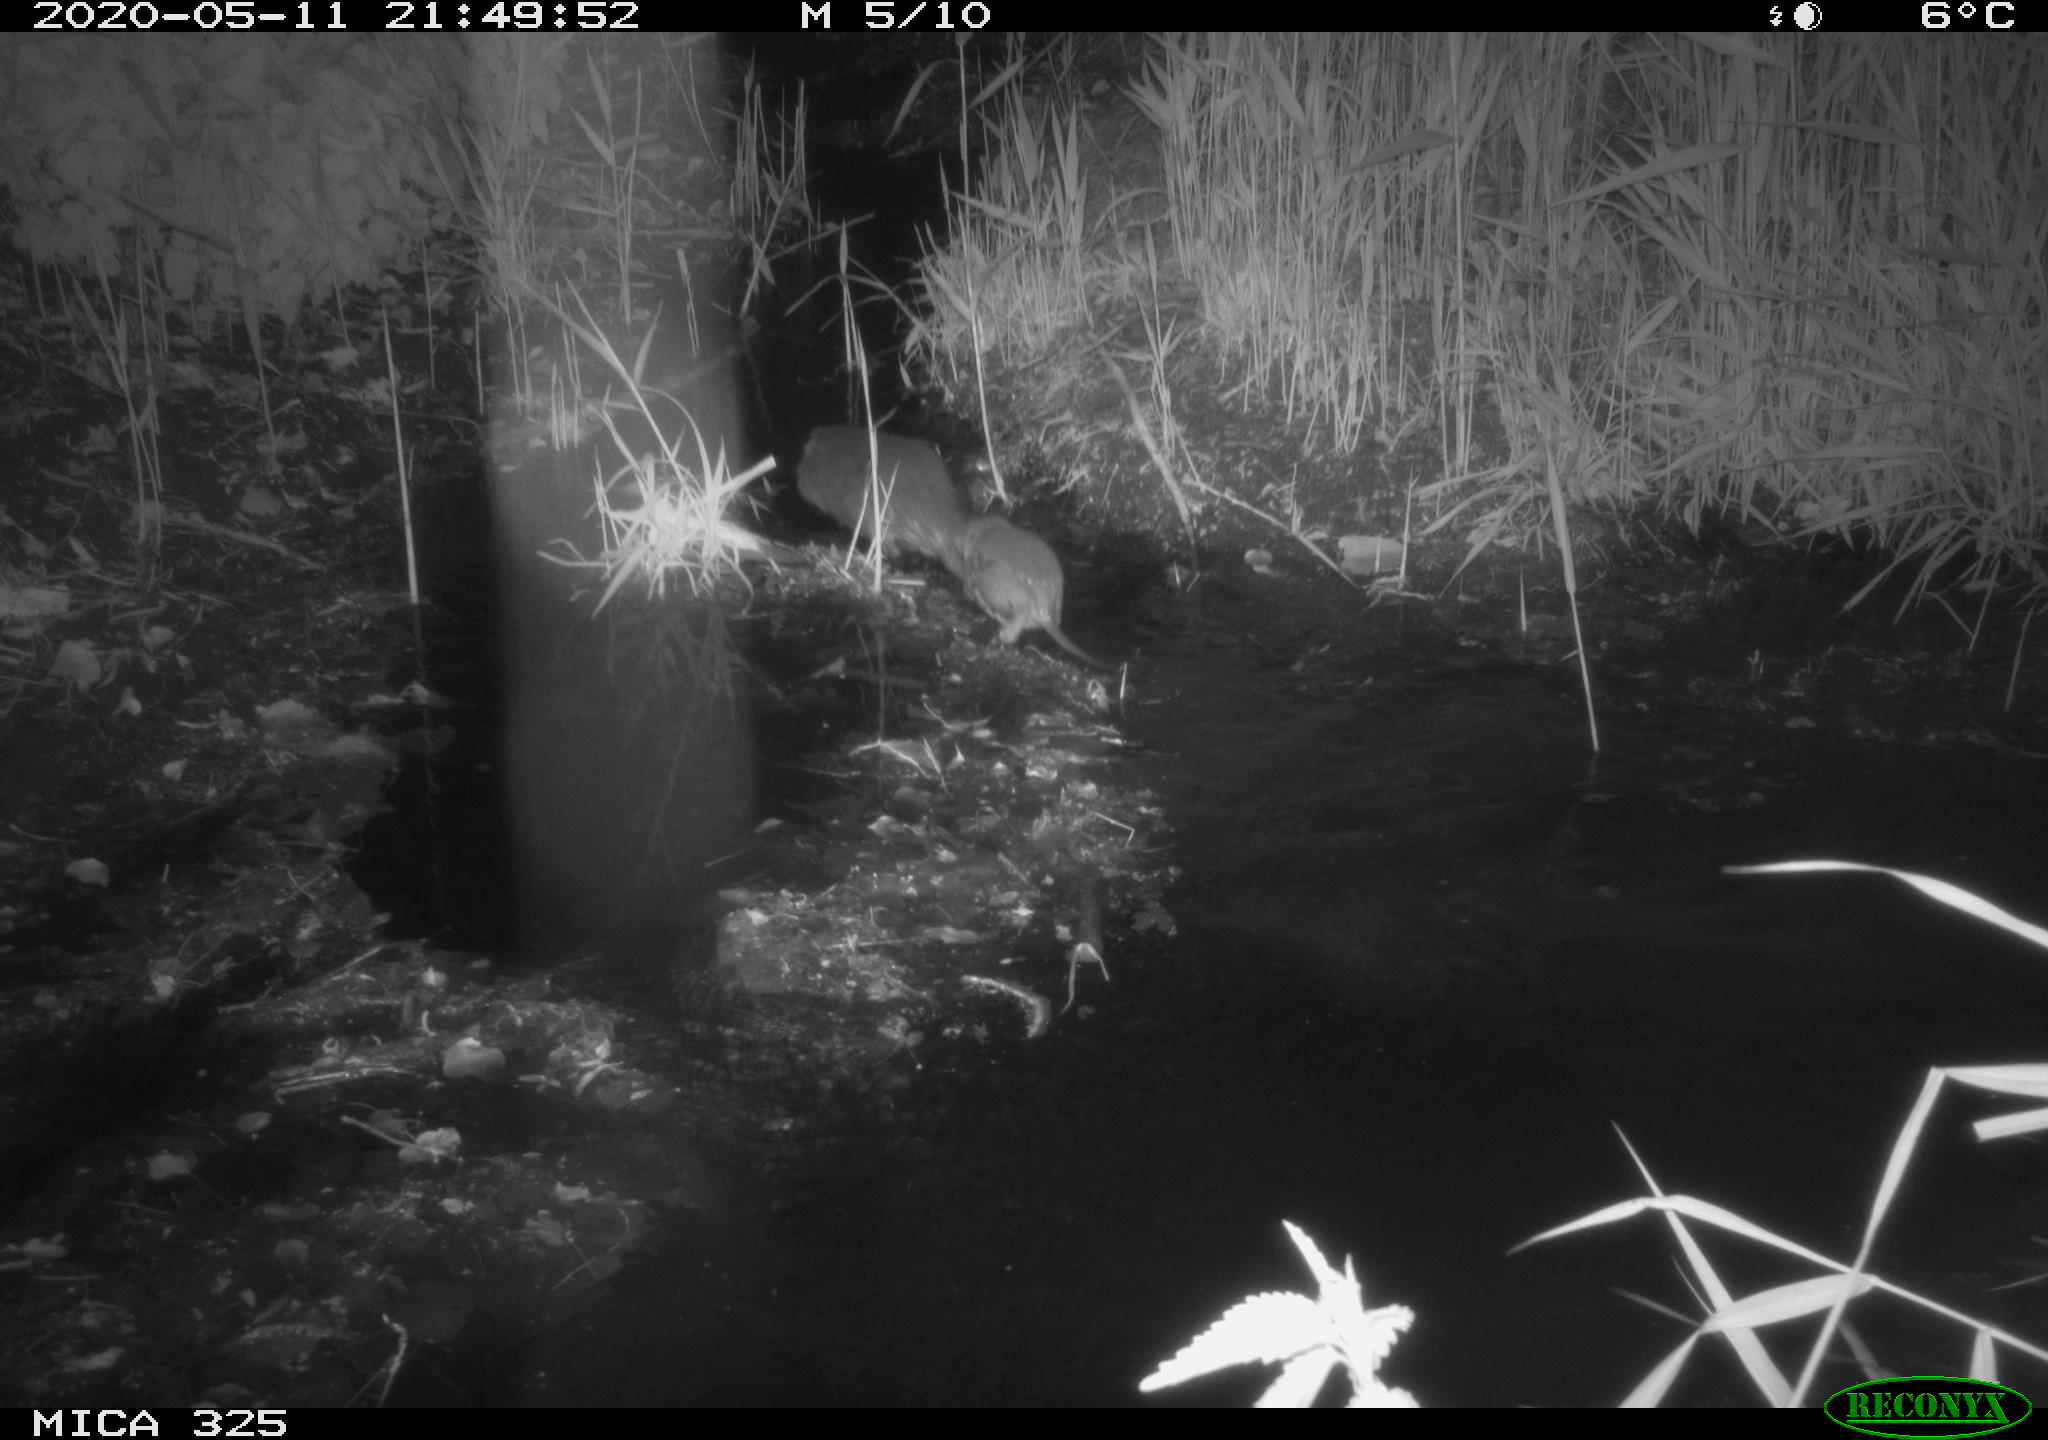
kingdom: Animalia
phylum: Chordata
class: Mammalia
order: Rodentia
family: Myocastoridae
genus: Myocastor
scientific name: Myocastor coypus
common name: Coypu
